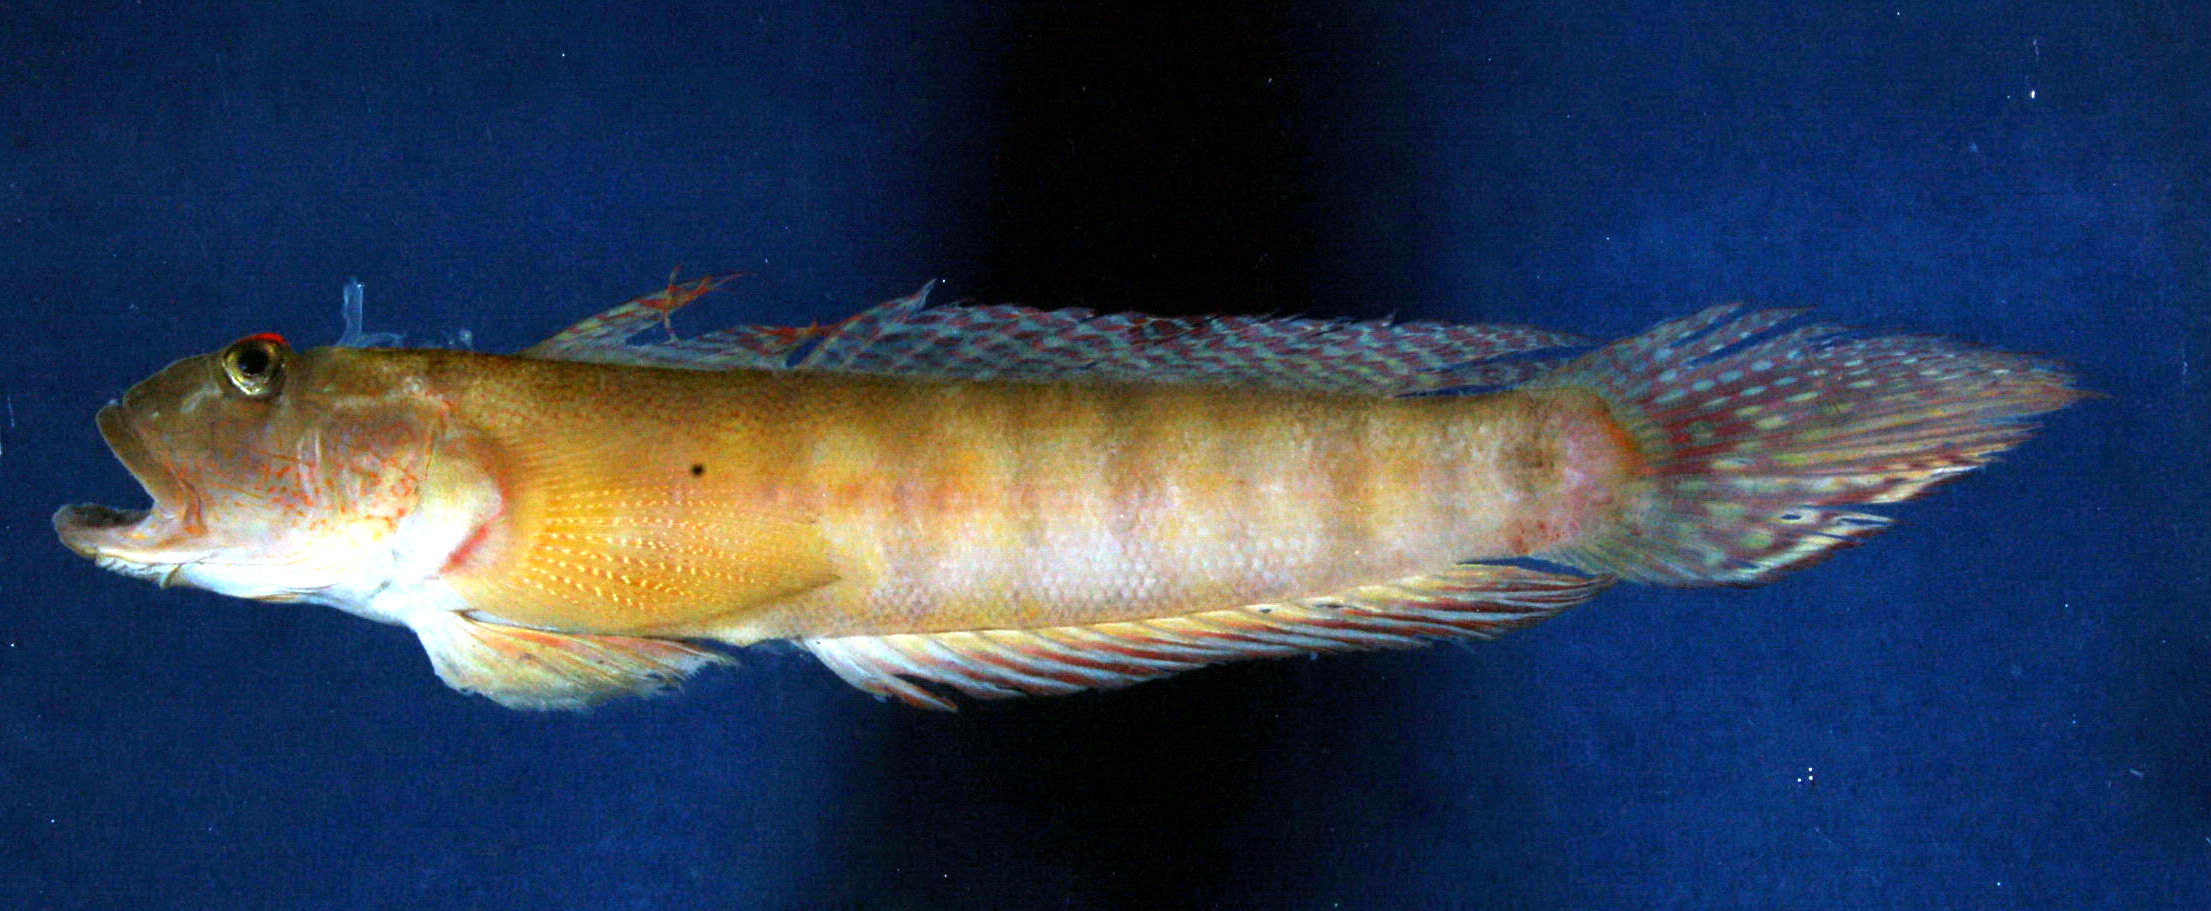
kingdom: Animalia
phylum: Chordata
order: Perciformes
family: Gobiidae
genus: Oxyurichthys
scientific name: Oxyurichthys papuensis
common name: Frogface goby
